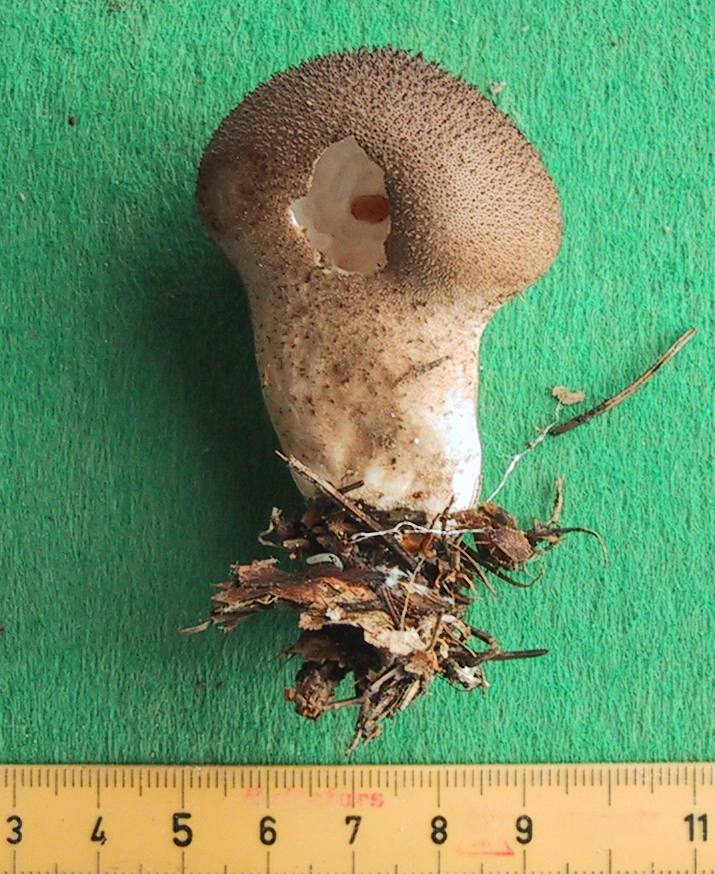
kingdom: Fungi
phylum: Basidiomycota
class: Agaricomycetes
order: Agaricales
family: Lycoperdaceae
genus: Lycoperdon
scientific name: Lycoperdon nigrescens
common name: sortagtig støvbold
